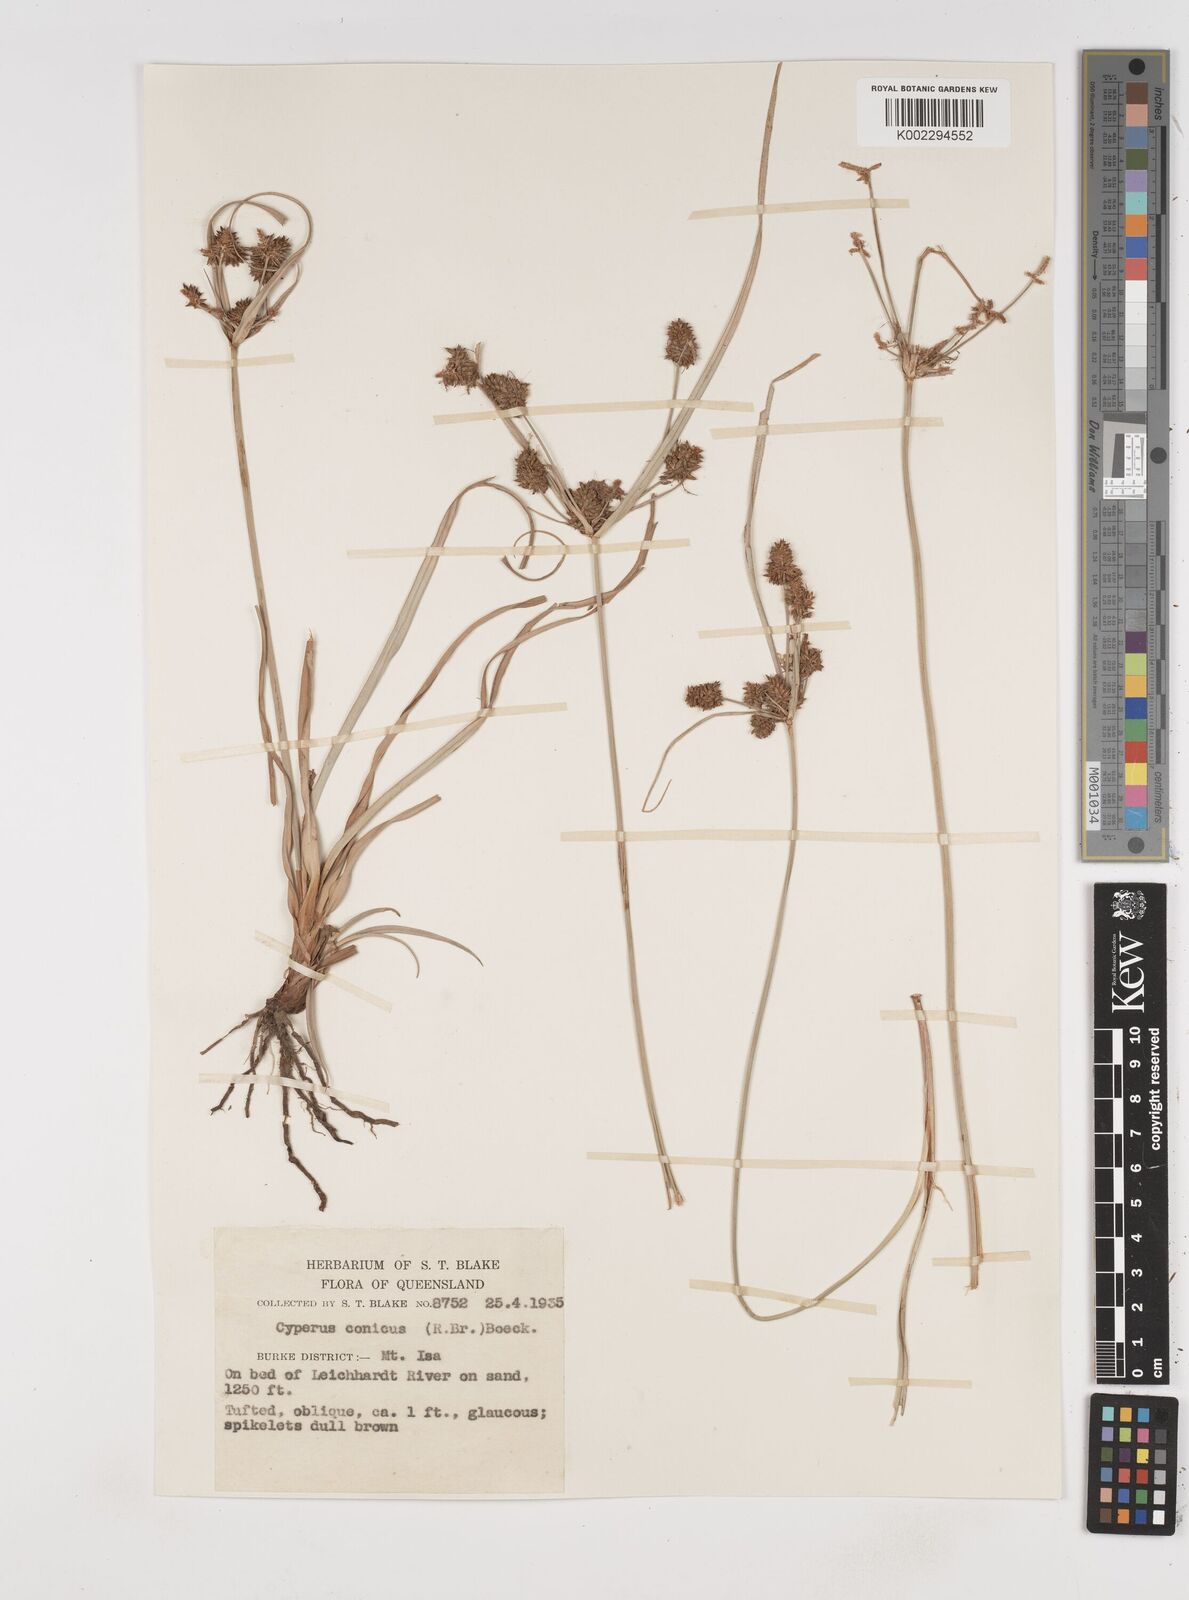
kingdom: Plantae
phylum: Tracheophyta
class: Liliopsida
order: Poales
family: Cyperaceae
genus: Cyperus
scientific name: Cyperus conicus
